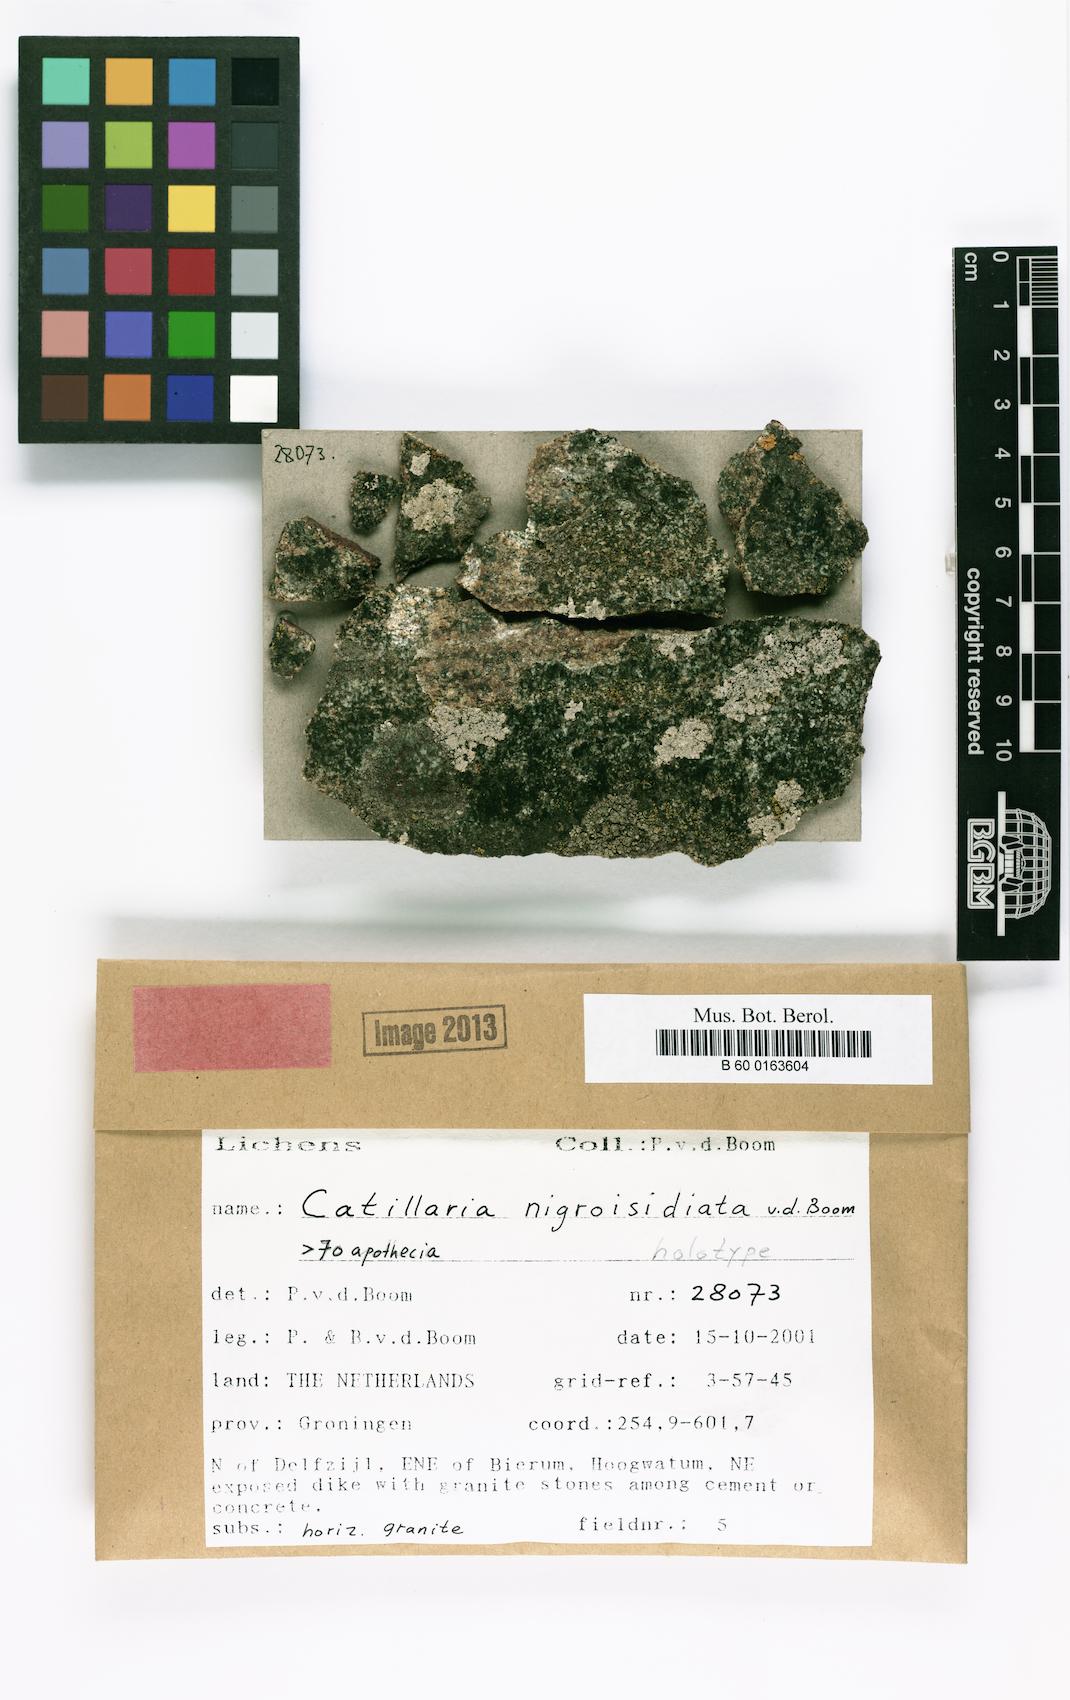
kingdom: Fungi
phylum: Ascomycota
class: Lecanoromycetes
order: Lecanorales
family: Catillariaceae
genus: Catillaria
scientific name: Catillaria nigroisidiata
